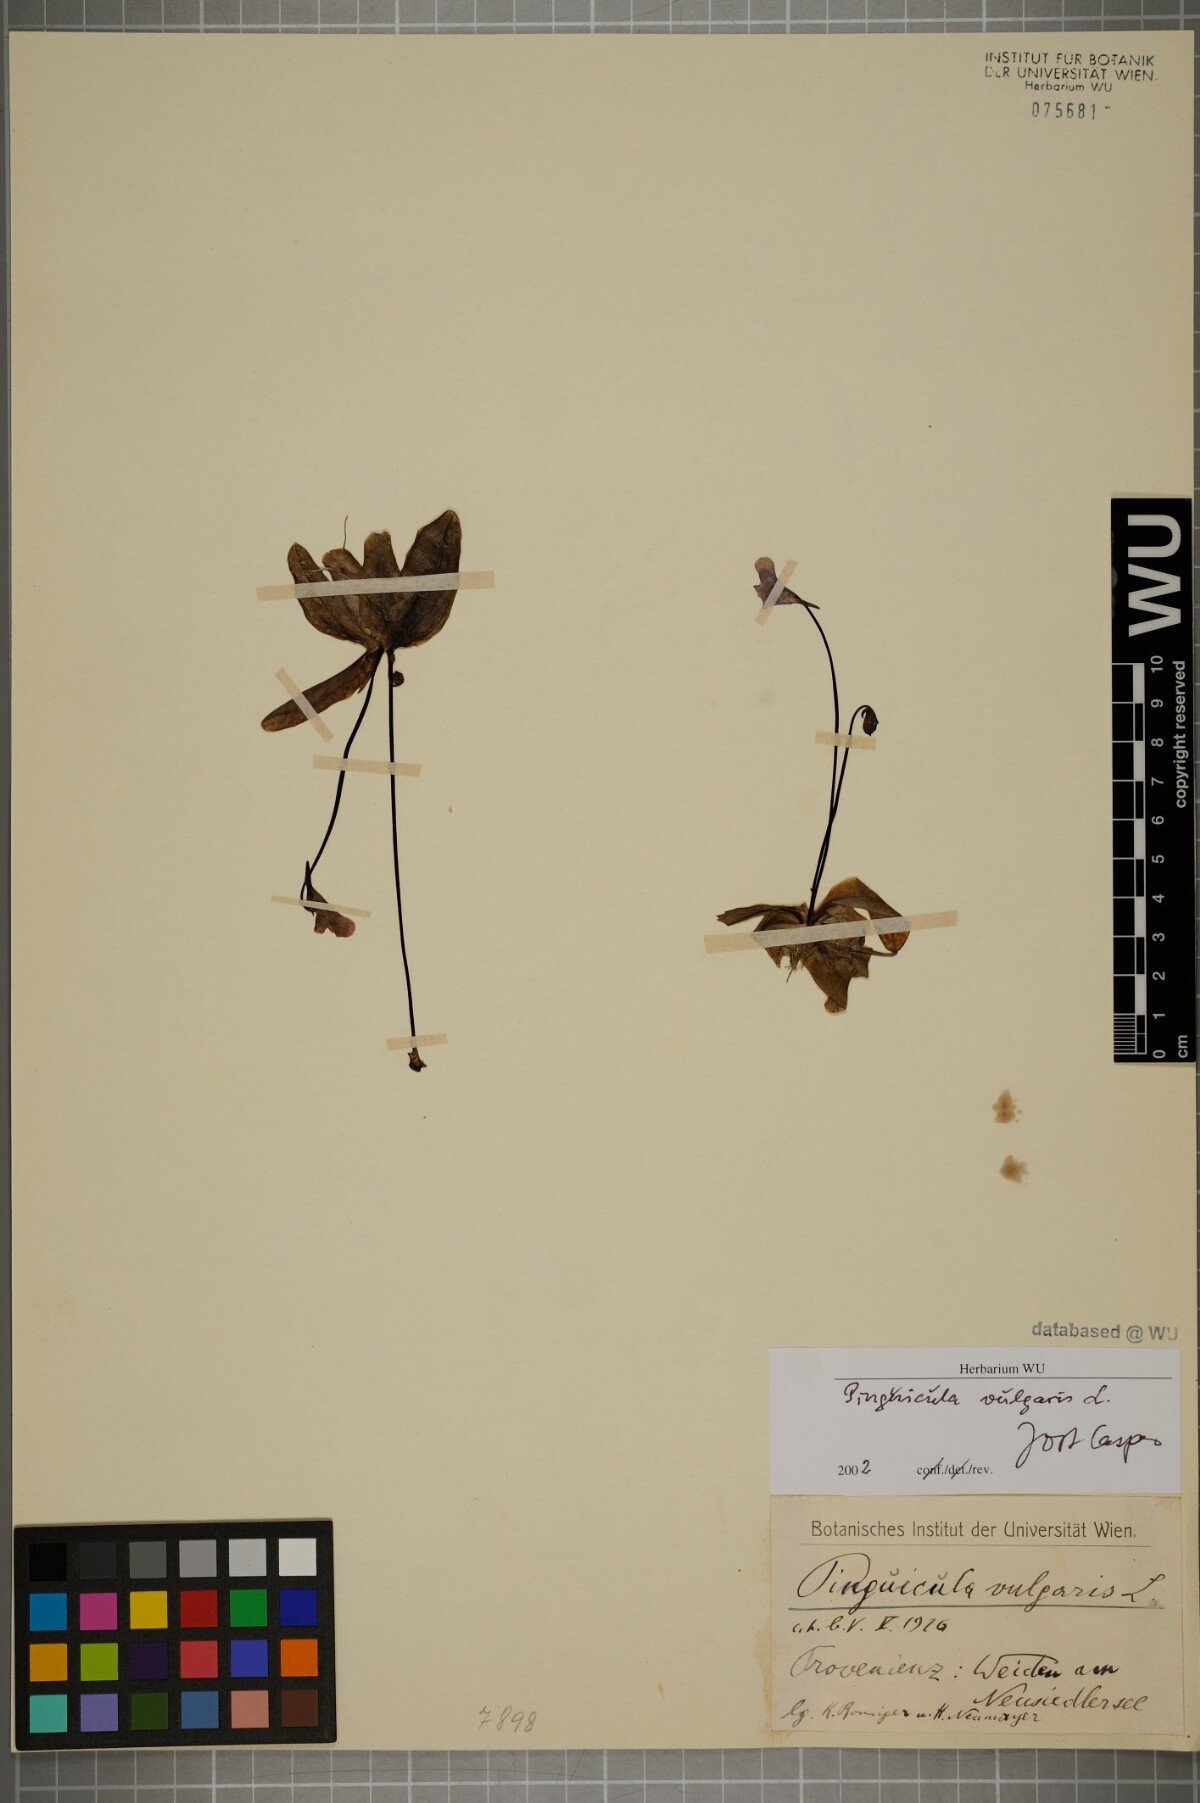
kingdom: Plantae
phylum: Tracheophyta
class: Magnoliopsida
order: Lamiales
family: Lentibulariaceae
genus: Pinguicula
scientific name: Pinguicula vulgaris
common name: Common butterwort
